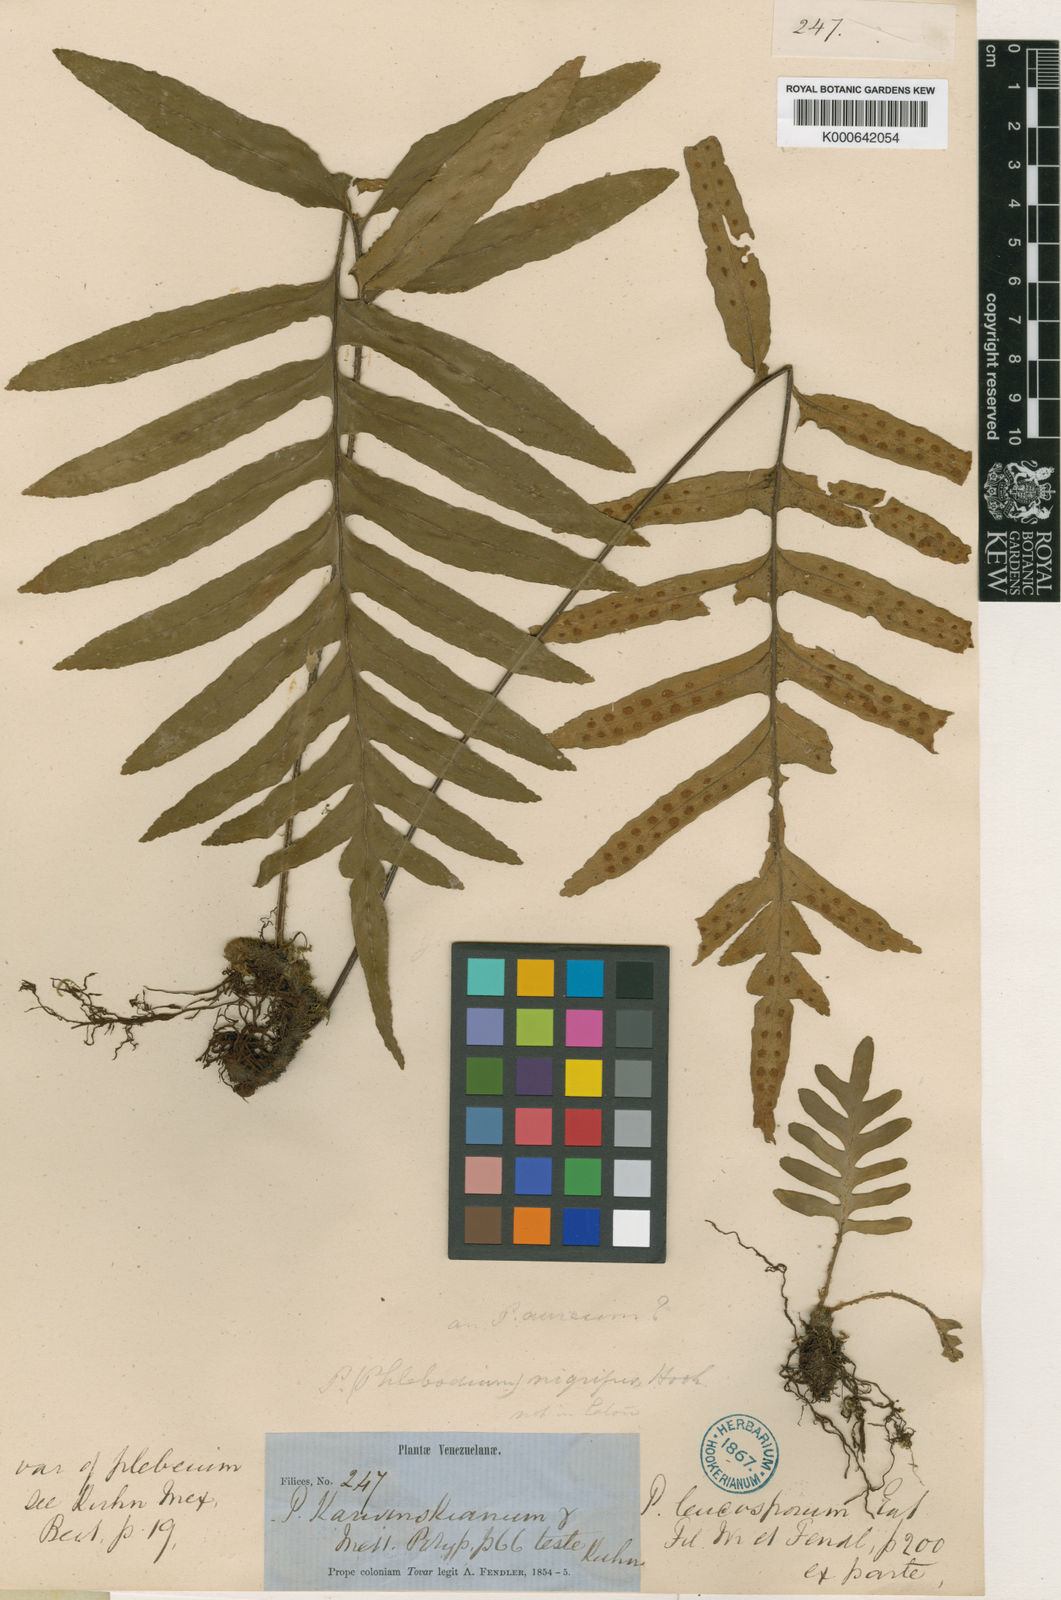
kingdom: Plantae
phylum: Tracheophyta
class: Polypodiopsida
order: Polypodiales
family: Polypodiaceae
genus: Pleopeltis
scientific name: Pleopeltis plebeia
